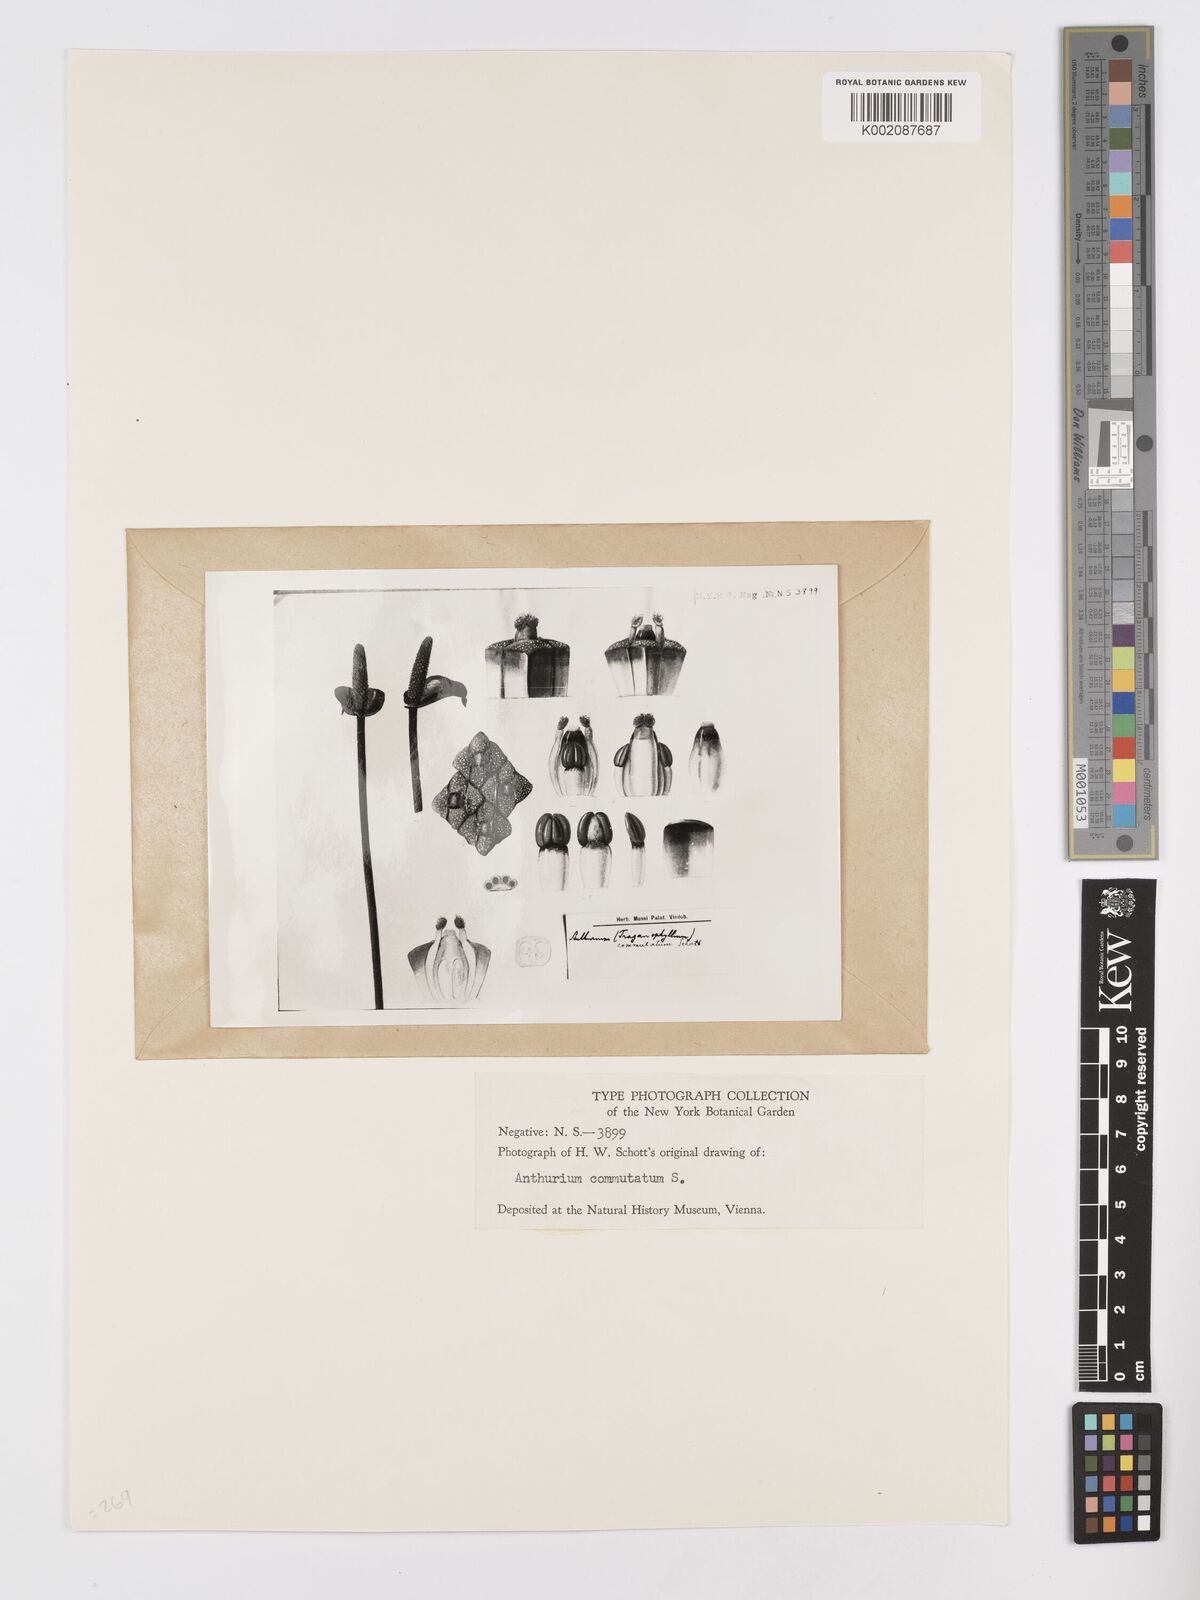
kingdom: Plantae
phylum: Tracheophyta
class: Liliopsida
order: Alismatales
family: Araceae
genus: Anthurium
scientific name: Anthurium cordatum
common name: Monkey tail
